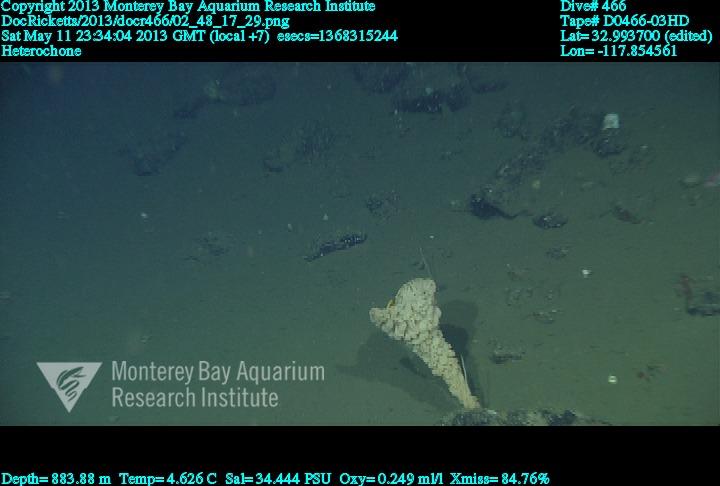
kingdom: Animalia
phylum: Porifera
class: Hexactinellida
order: Sceptrulophora
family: Aphrocallistidae
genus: Heterochone
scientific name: Heterochone
